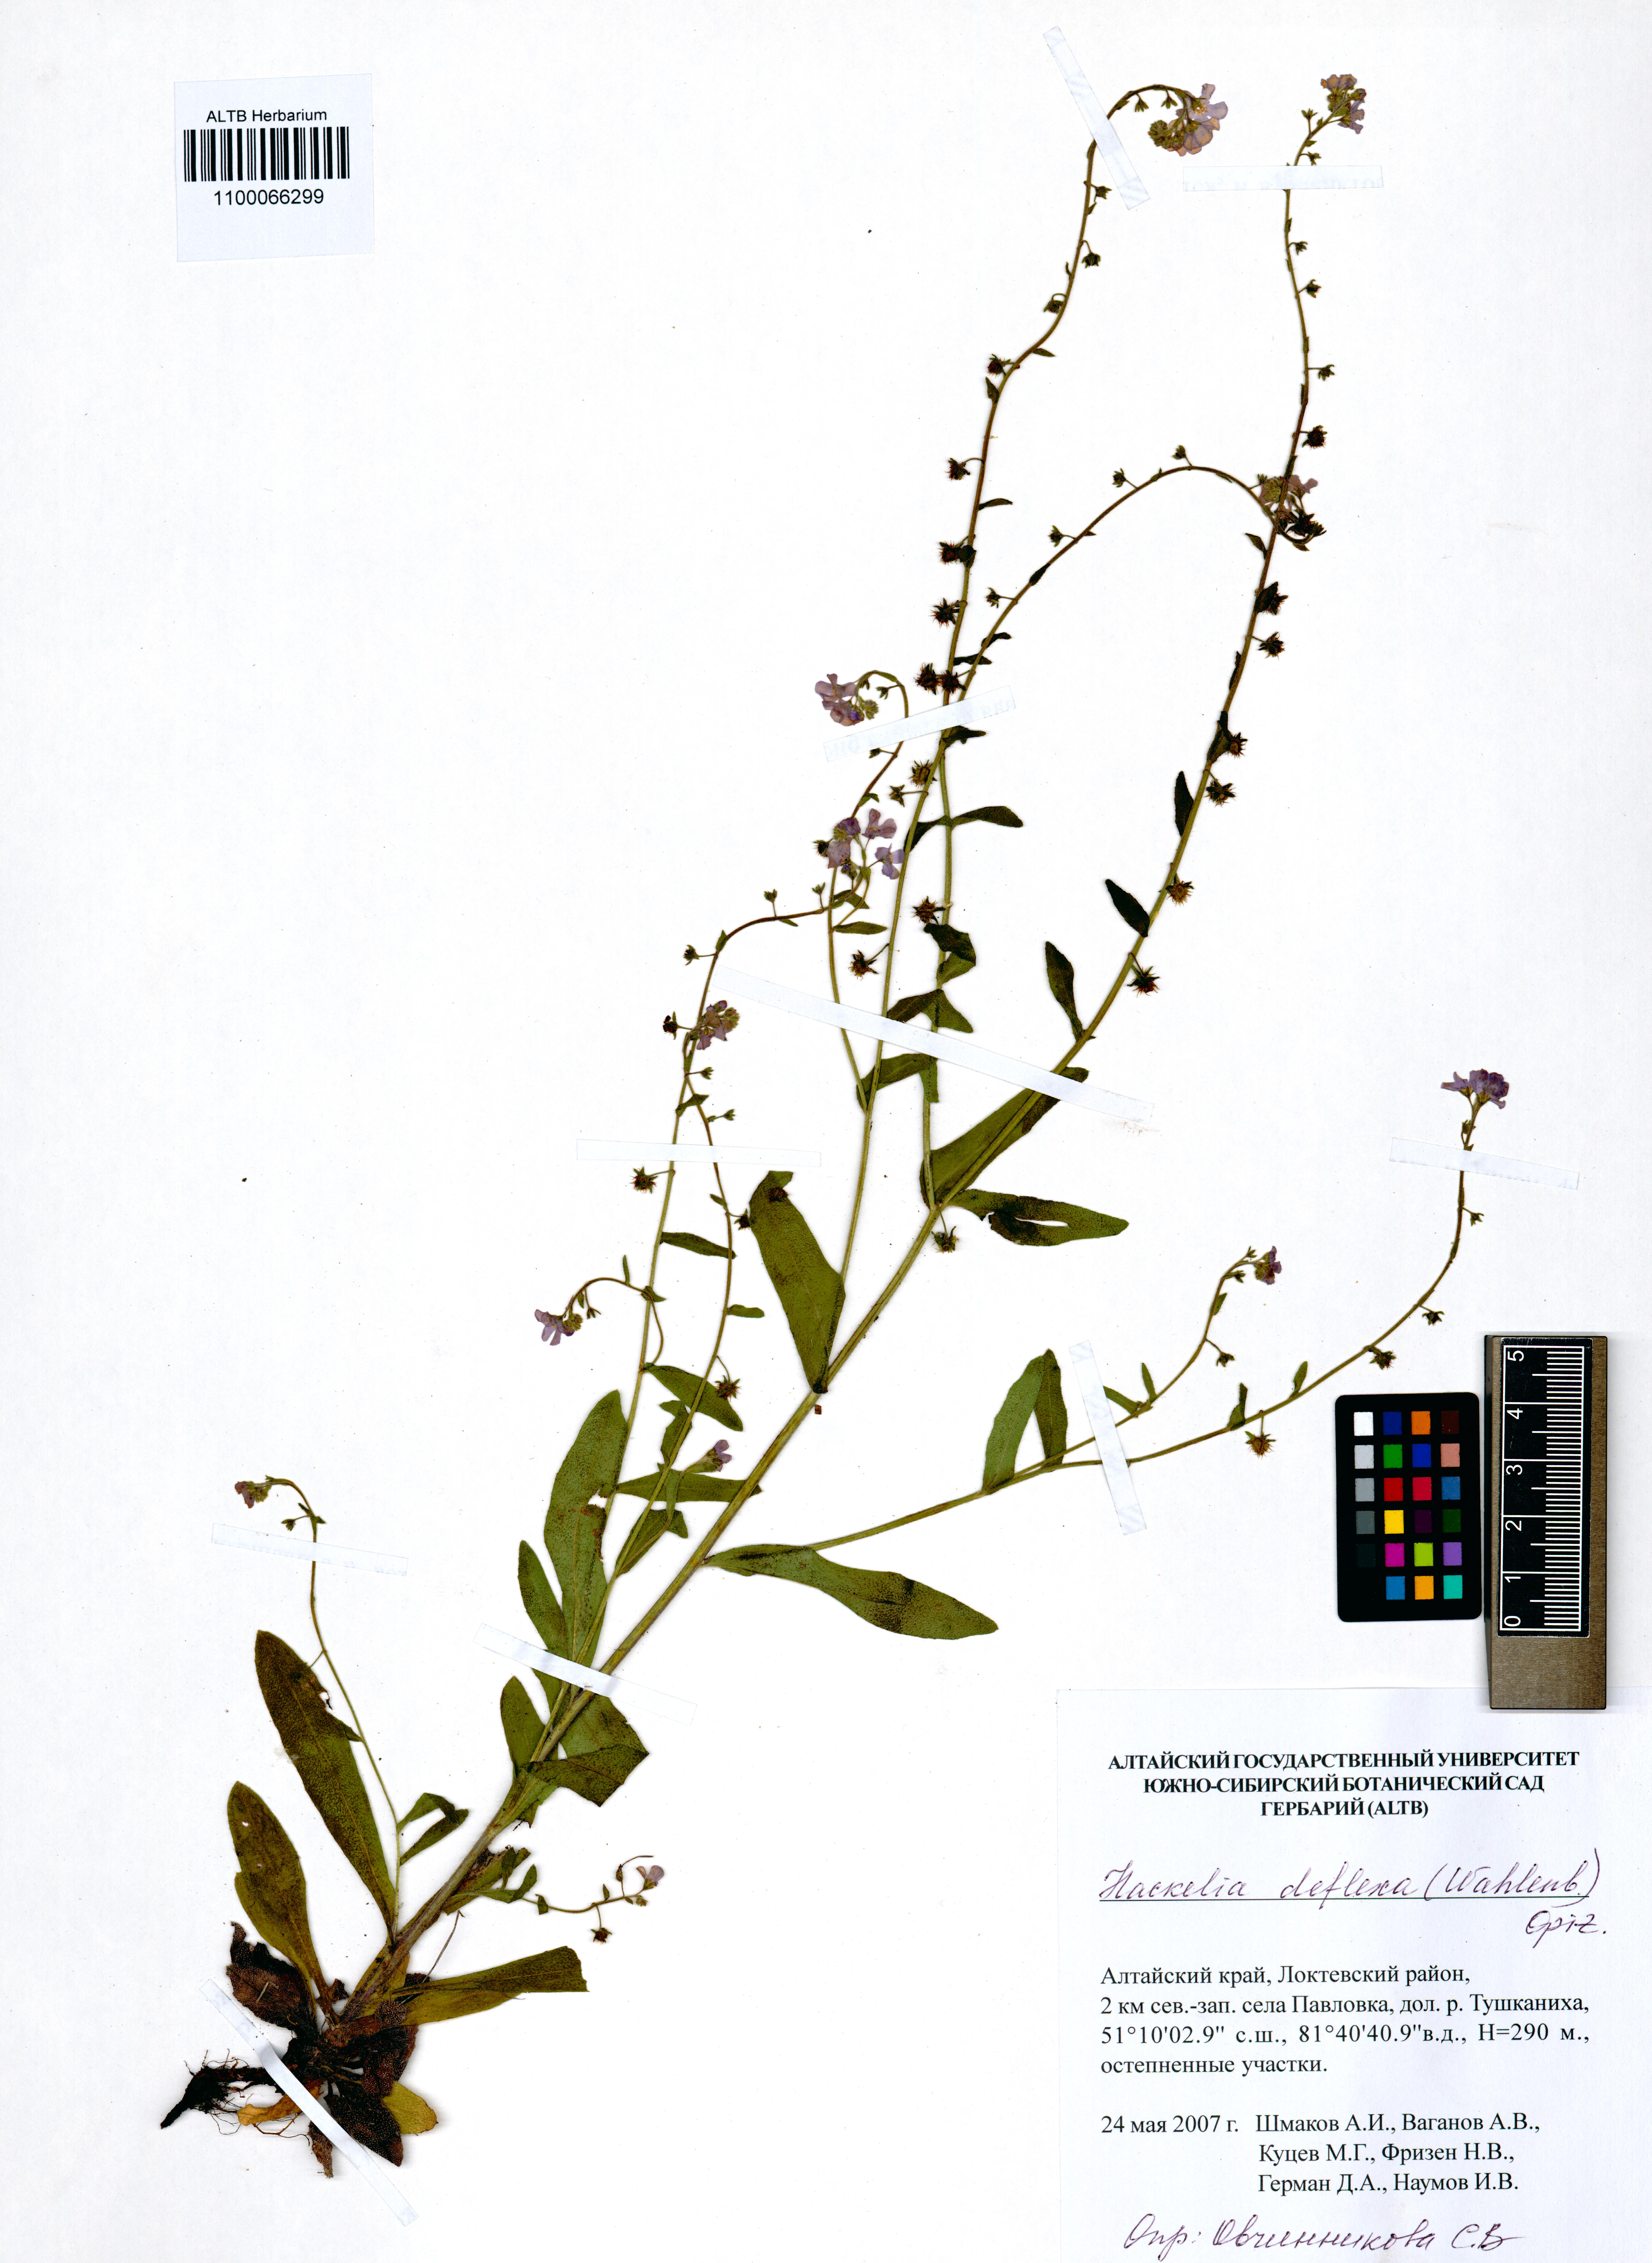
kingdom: Plantae
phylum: Tracheophyta
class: Magnoliopsida
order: Boraginales
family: Boraginaceae
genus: Hackelia
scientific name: Hackelia deflexa
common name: Nodding stickseed
